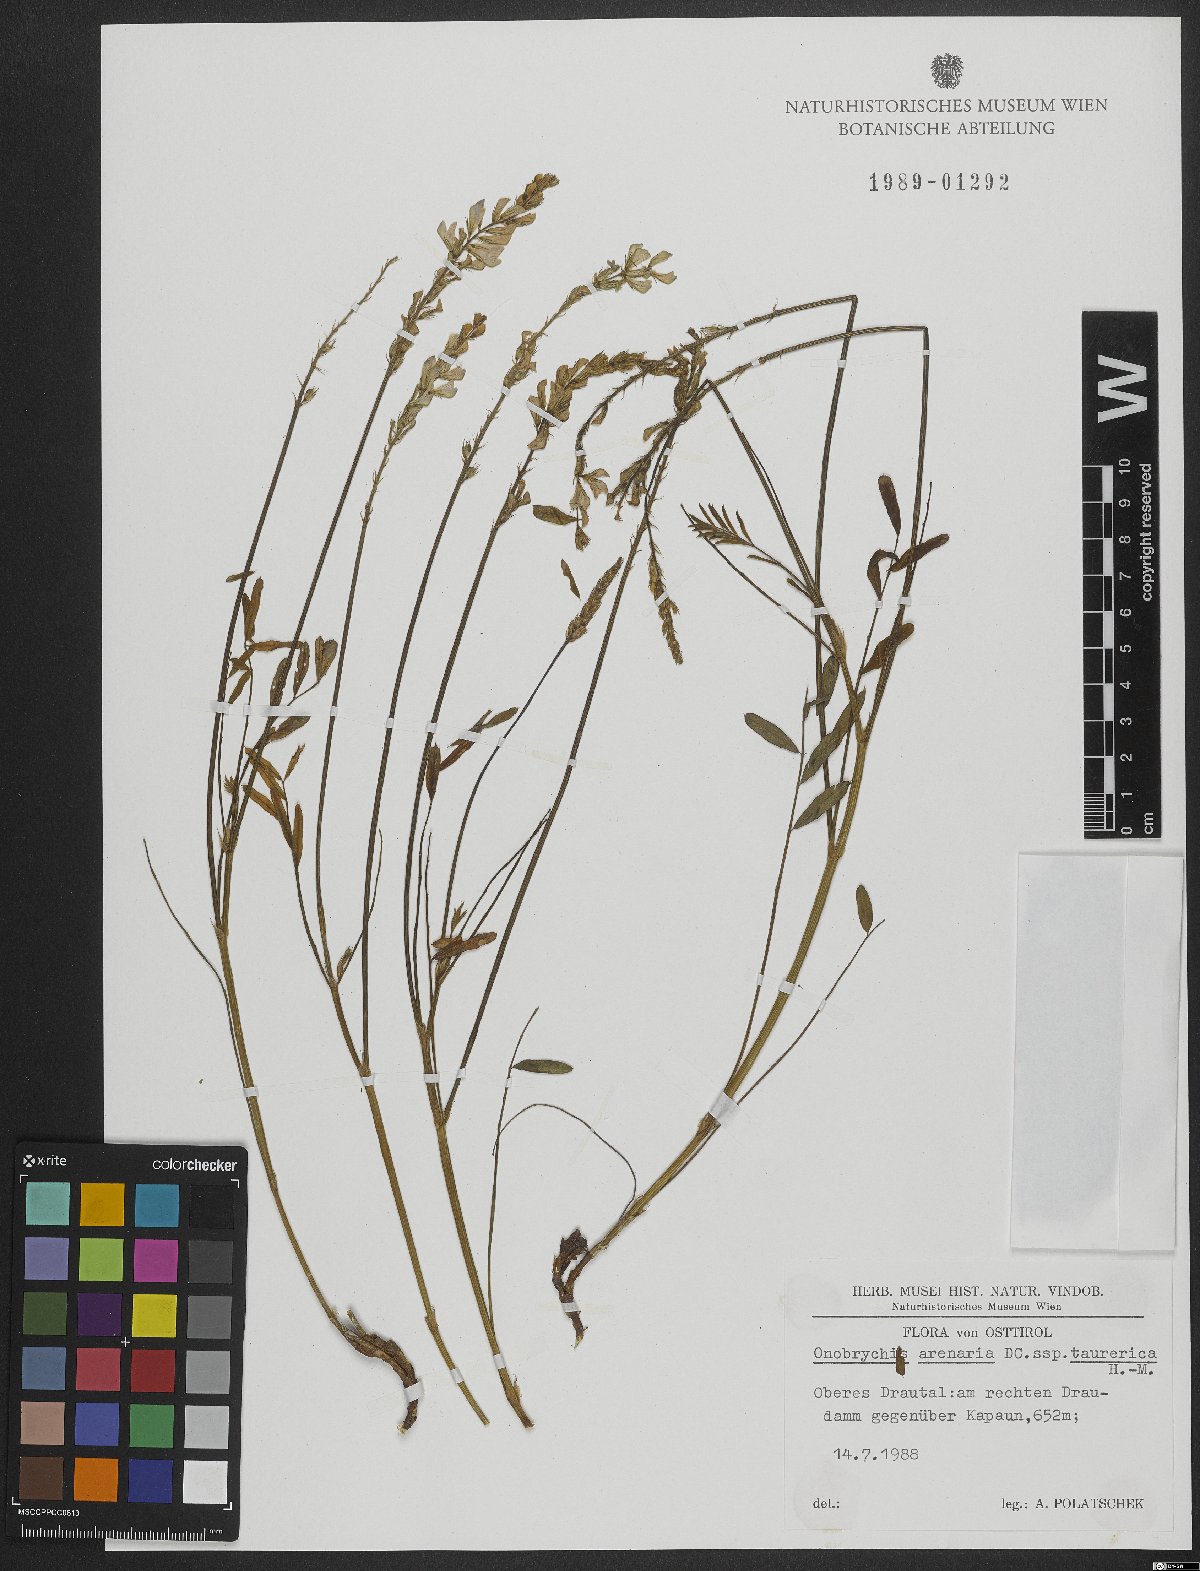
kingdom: Plantae
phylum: Tracheophyta
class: Magnoliopsida
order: Fabales
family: Fabaceae
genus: Onobrychis
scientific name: Onobrychis arenaria
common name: Sand esparcet
